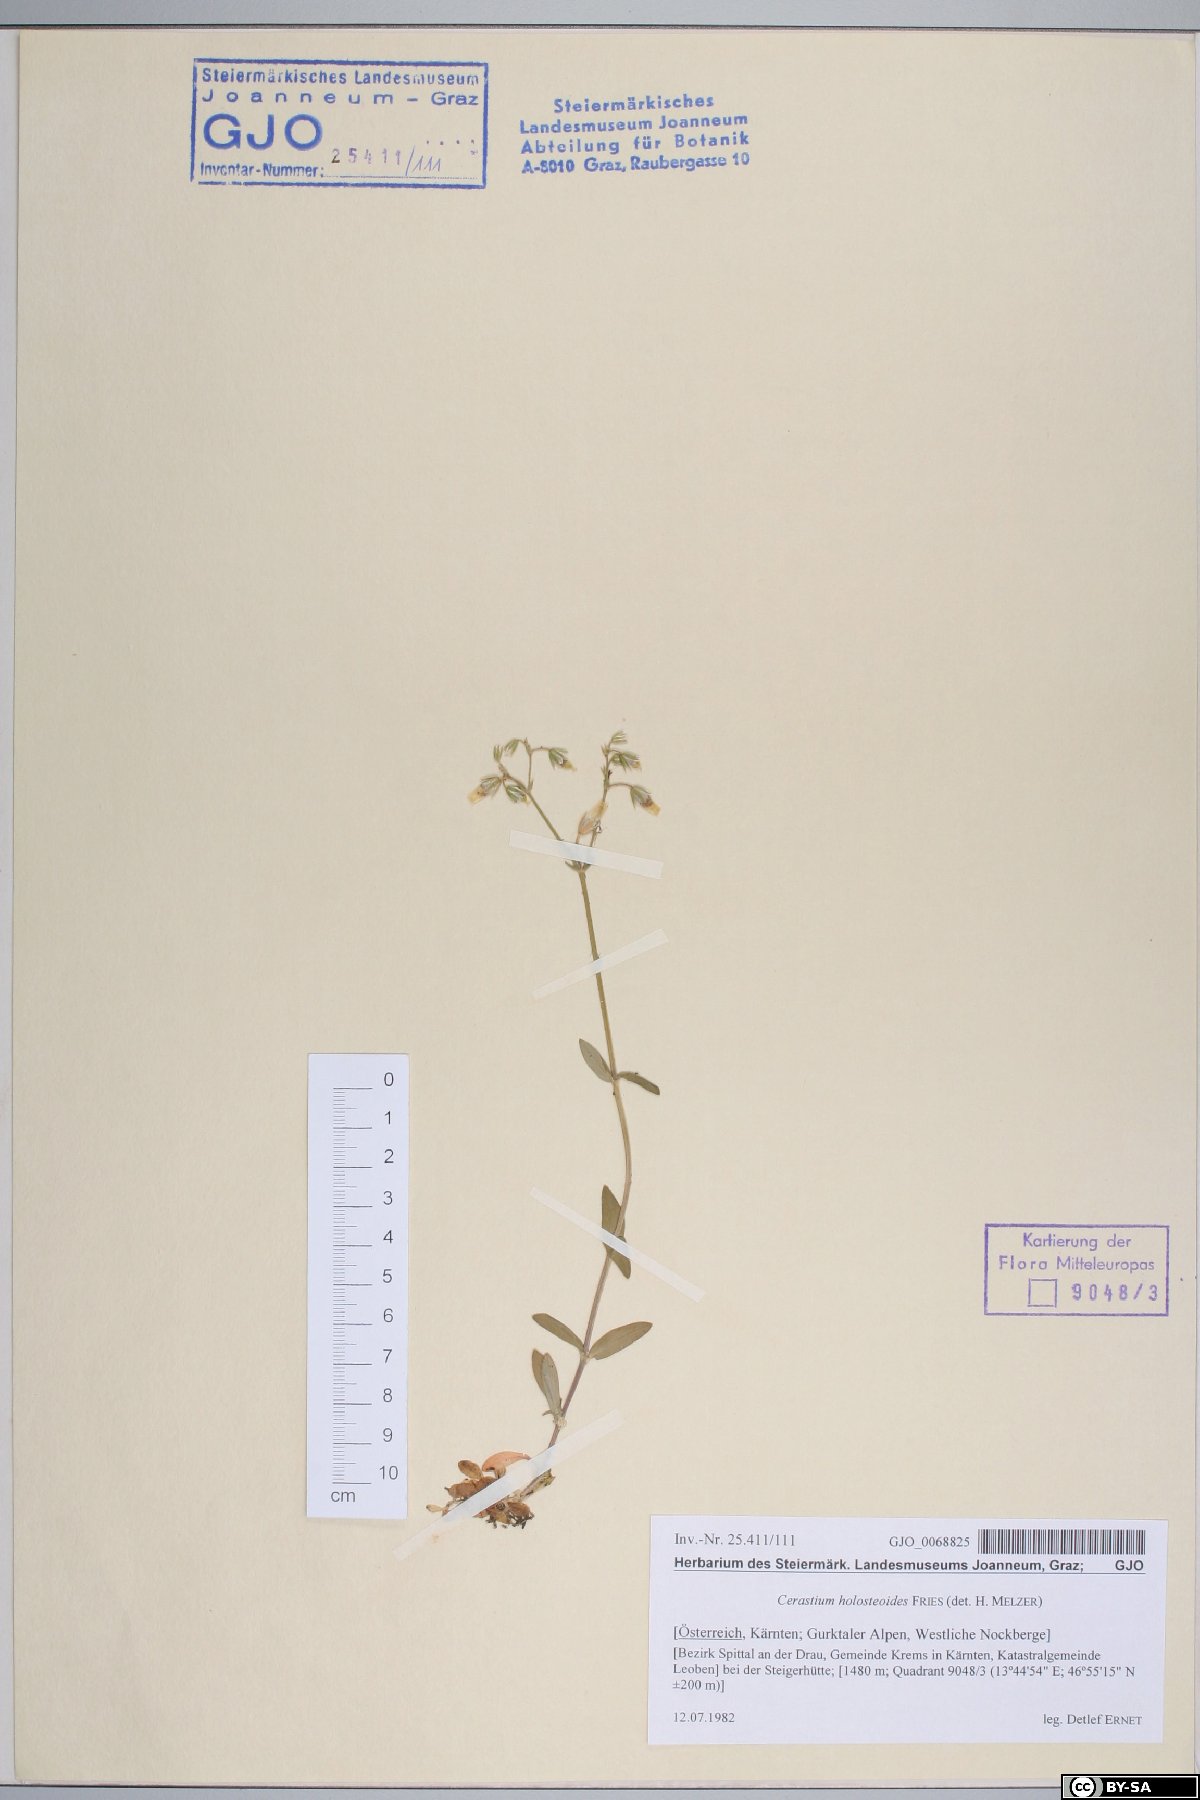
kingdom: Plantae
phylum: Tracheophyta
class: Magnoliopsida
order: Caryophyllales
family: Caryophyllaceae
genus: Cerastium
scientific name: Cerastium holosteoides
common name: Big chickweed
